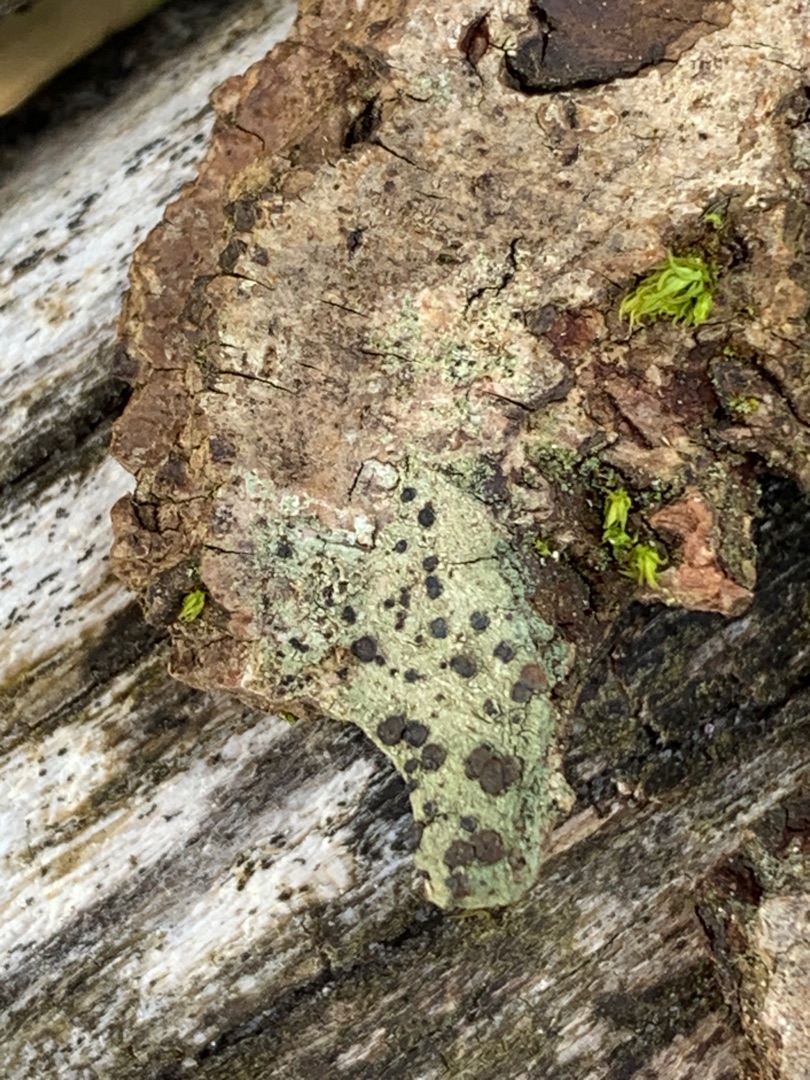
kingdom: Fungi
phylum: Ascomycota
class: Lecanoromycetes
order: Lecanorales
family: Lecanoraceae
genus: Lecidella
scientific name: Lecidella elaeochroma
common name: Grågrøn skivelav
